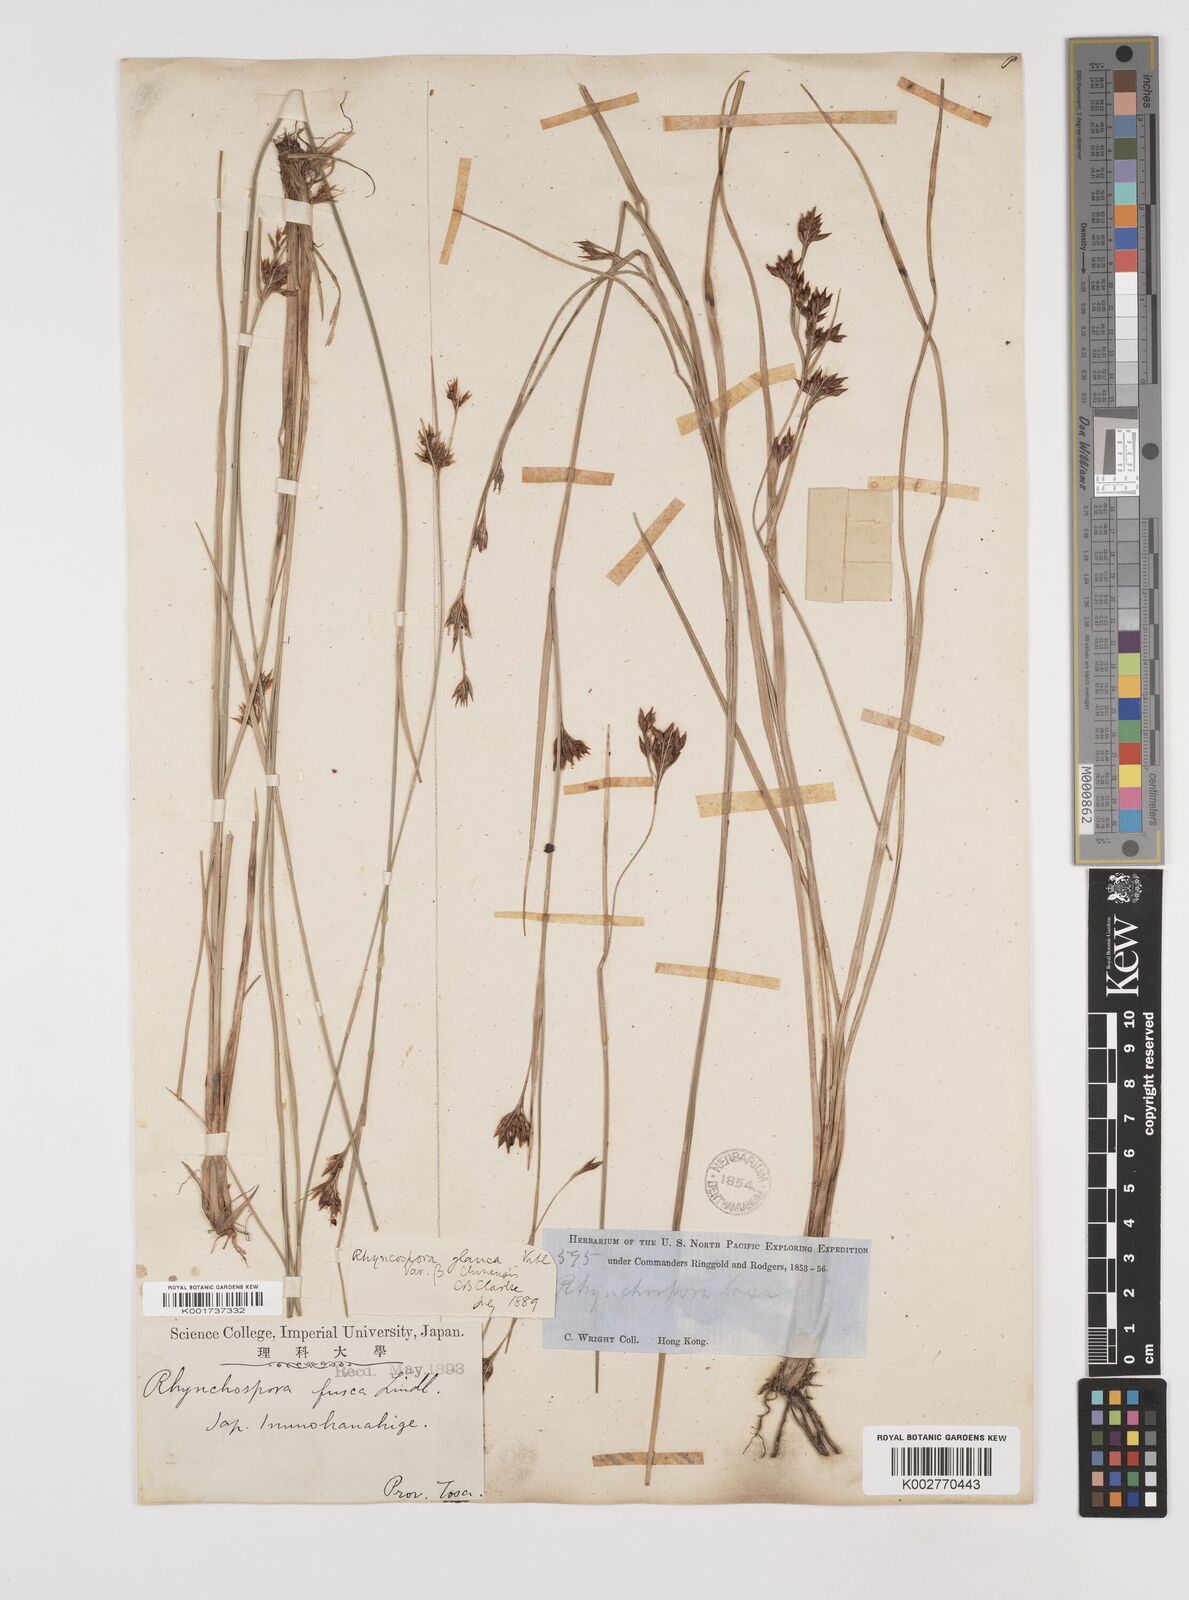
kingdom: Plantae
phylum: Tracheophyta
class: Liliopsida
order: Poales
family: Cyperaceae
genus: Rhynchospora
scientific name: Rhynchospora
